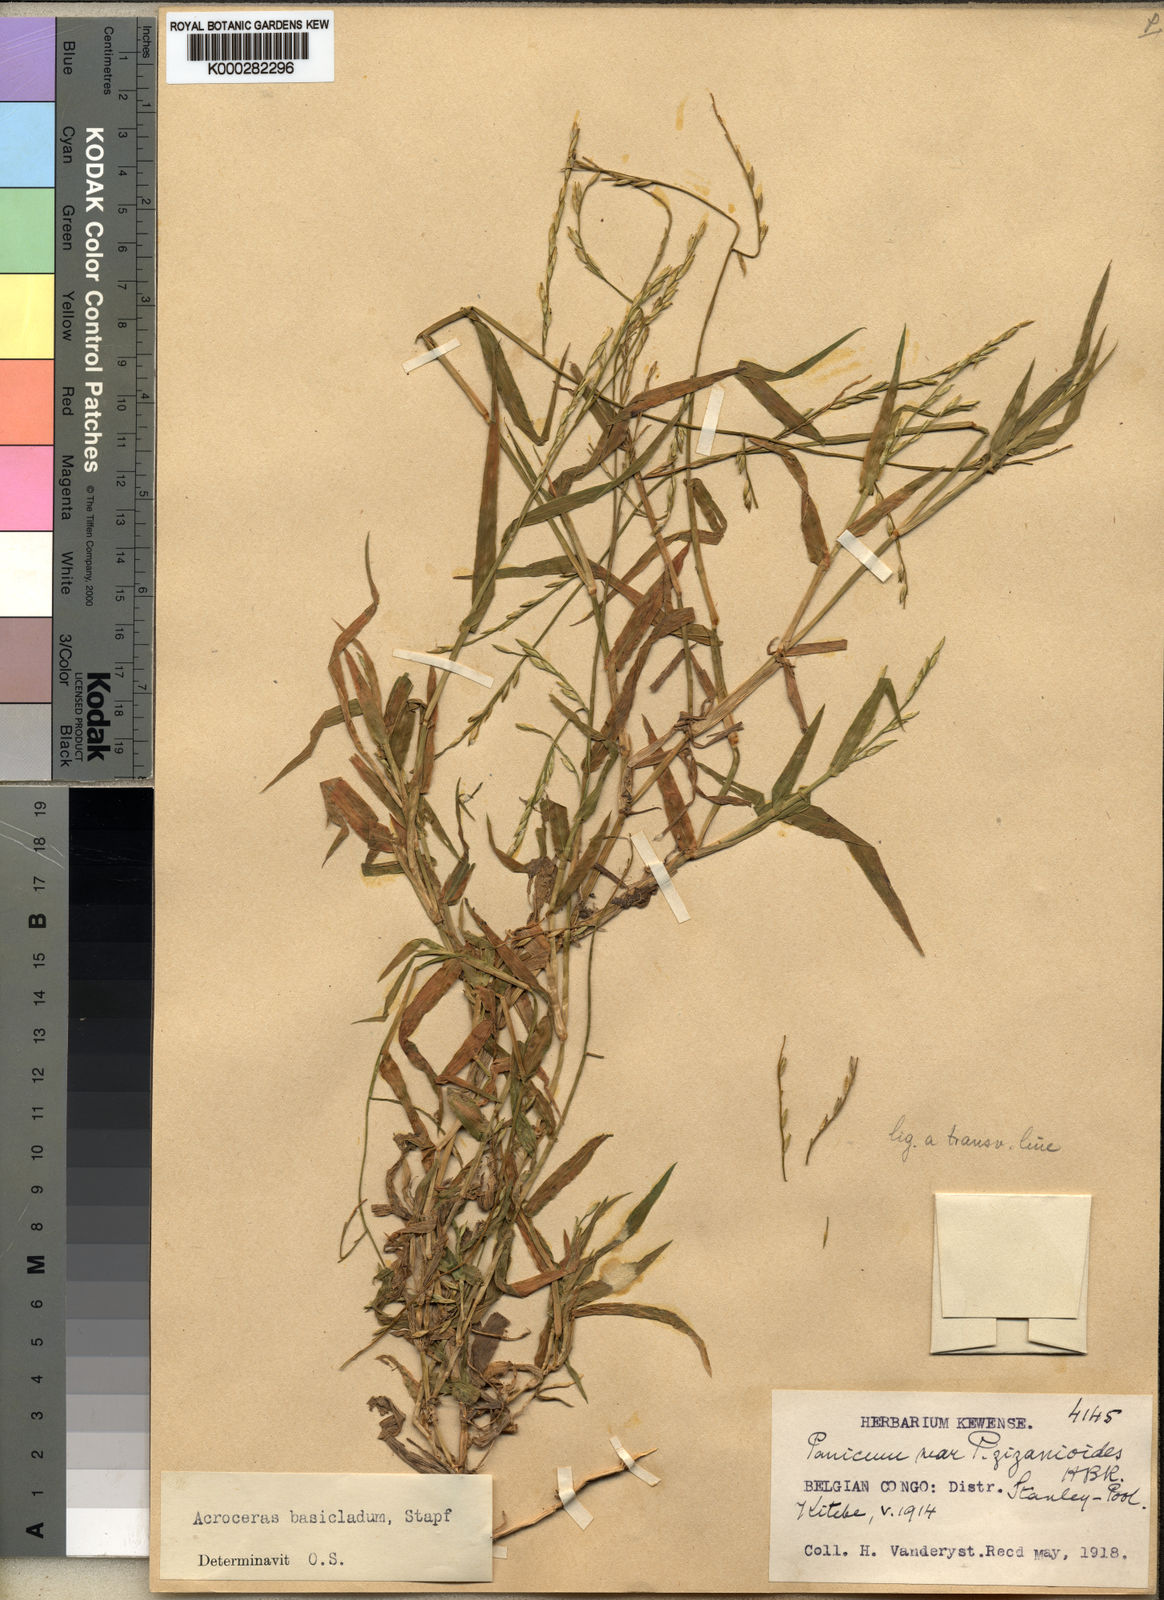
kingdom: Plantae
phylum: Tracheophyta
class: Liliopsida
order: Poales
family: Poaceae
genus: Acroceras
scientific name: Acroceras amplectens
